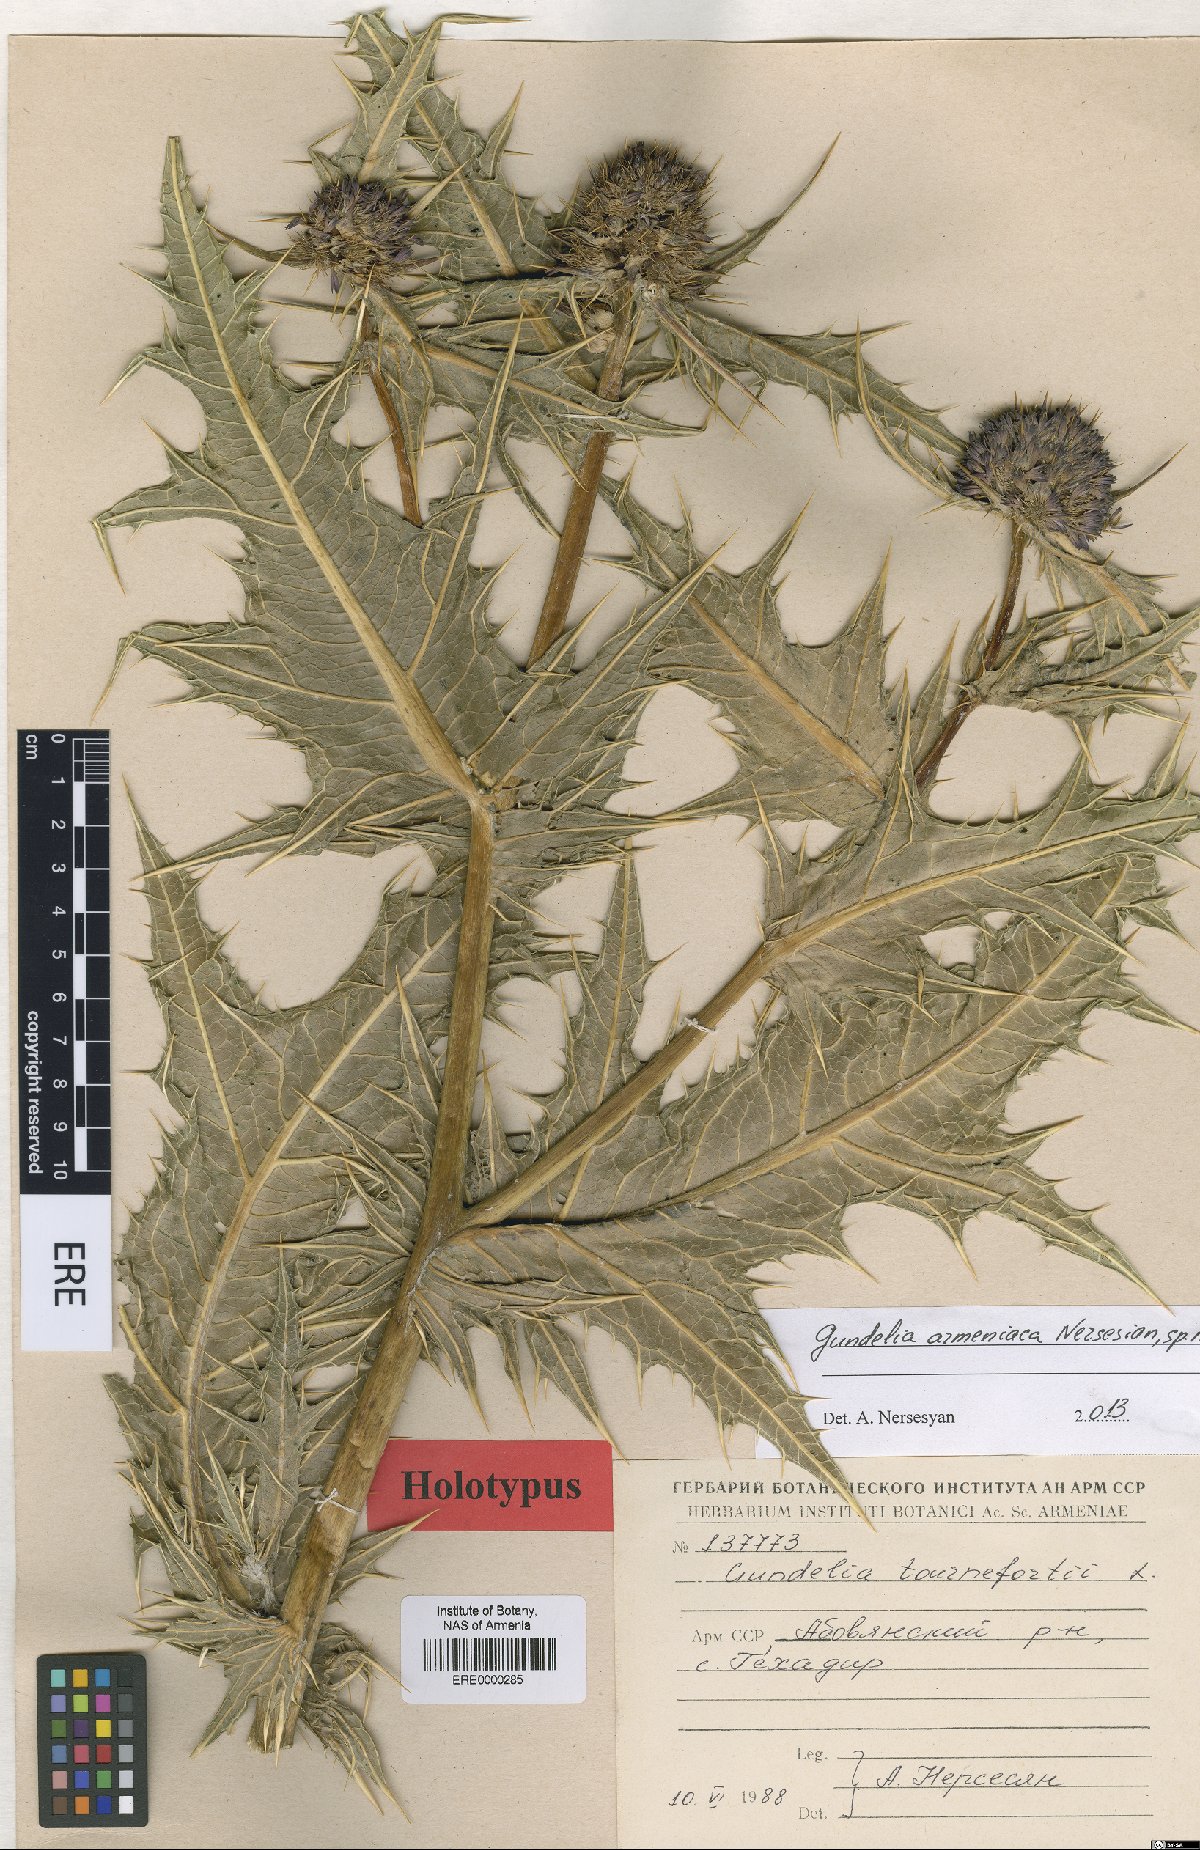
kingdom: Plantae
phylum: Tracheophyta
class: Magnoliopsida
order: Asterales
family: Asteraceae
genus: Gundelia
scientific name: Gundelia armeniaca
